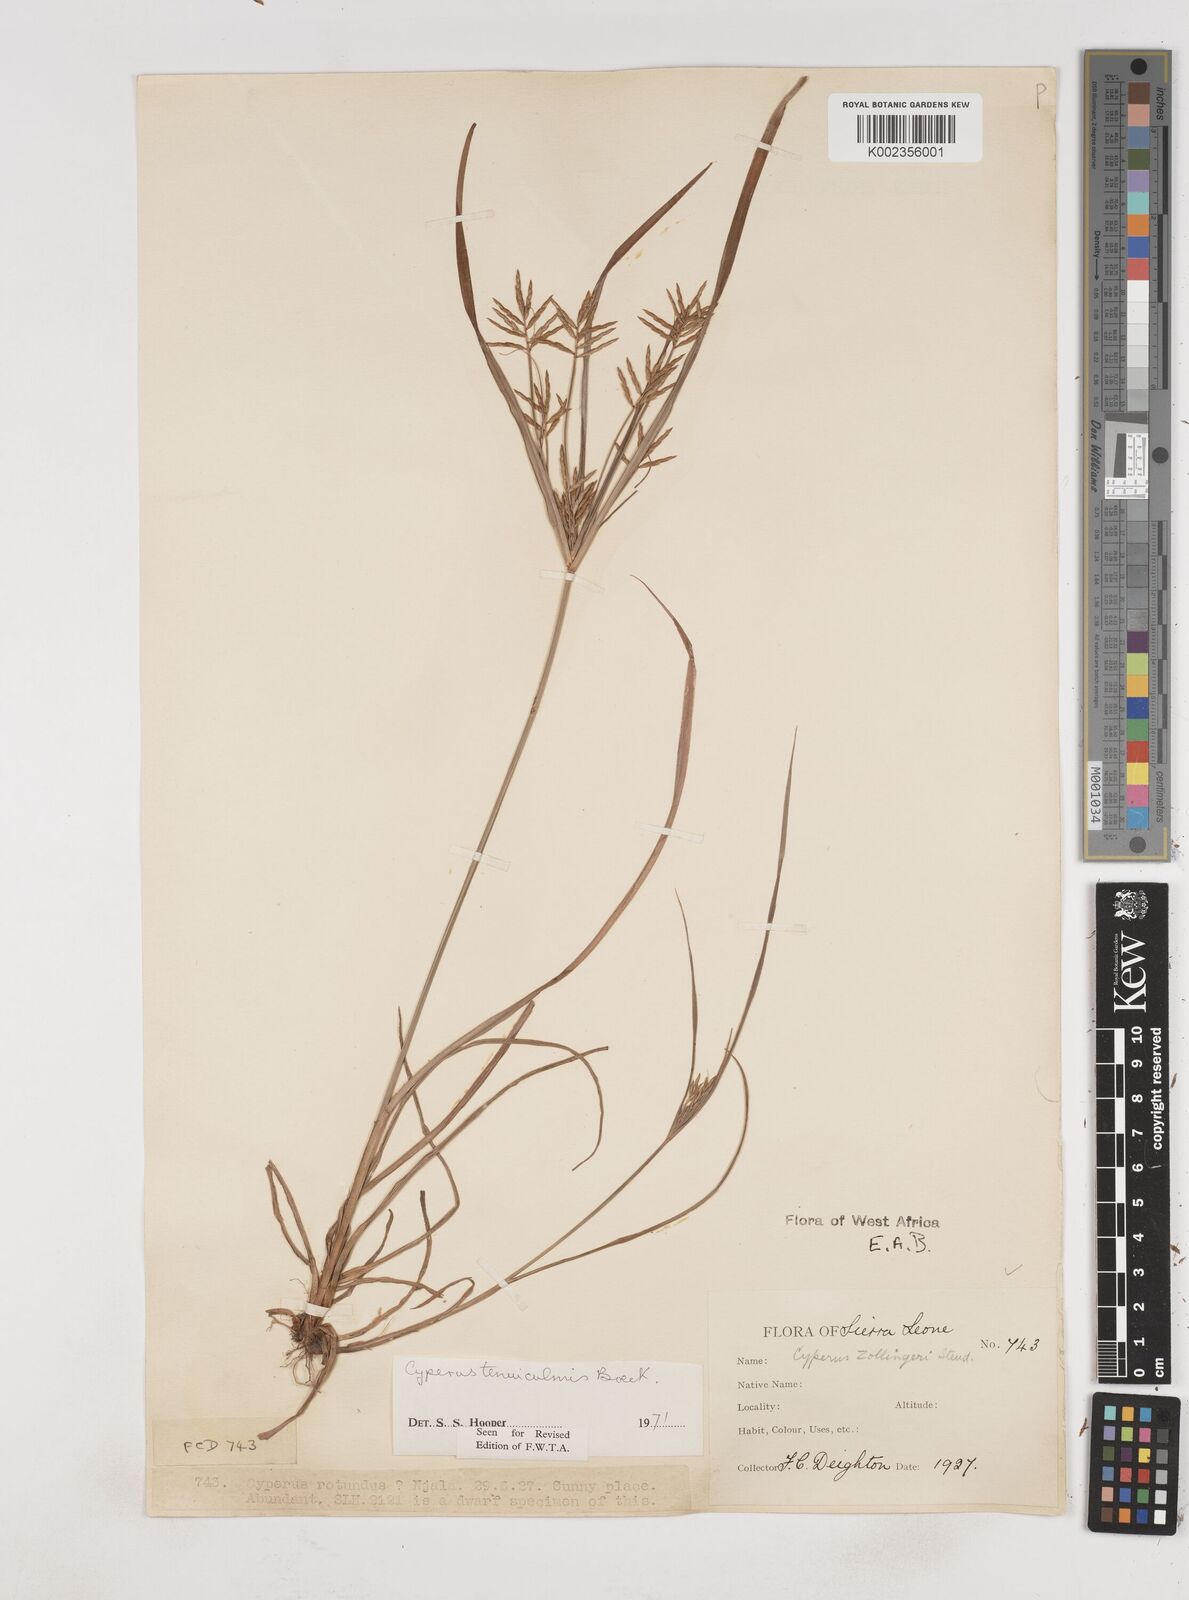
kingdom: Plantae
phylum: Tracheophyta
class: Liliopsida
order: Poales
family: Cyperaceae
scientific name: Cyperaceae
